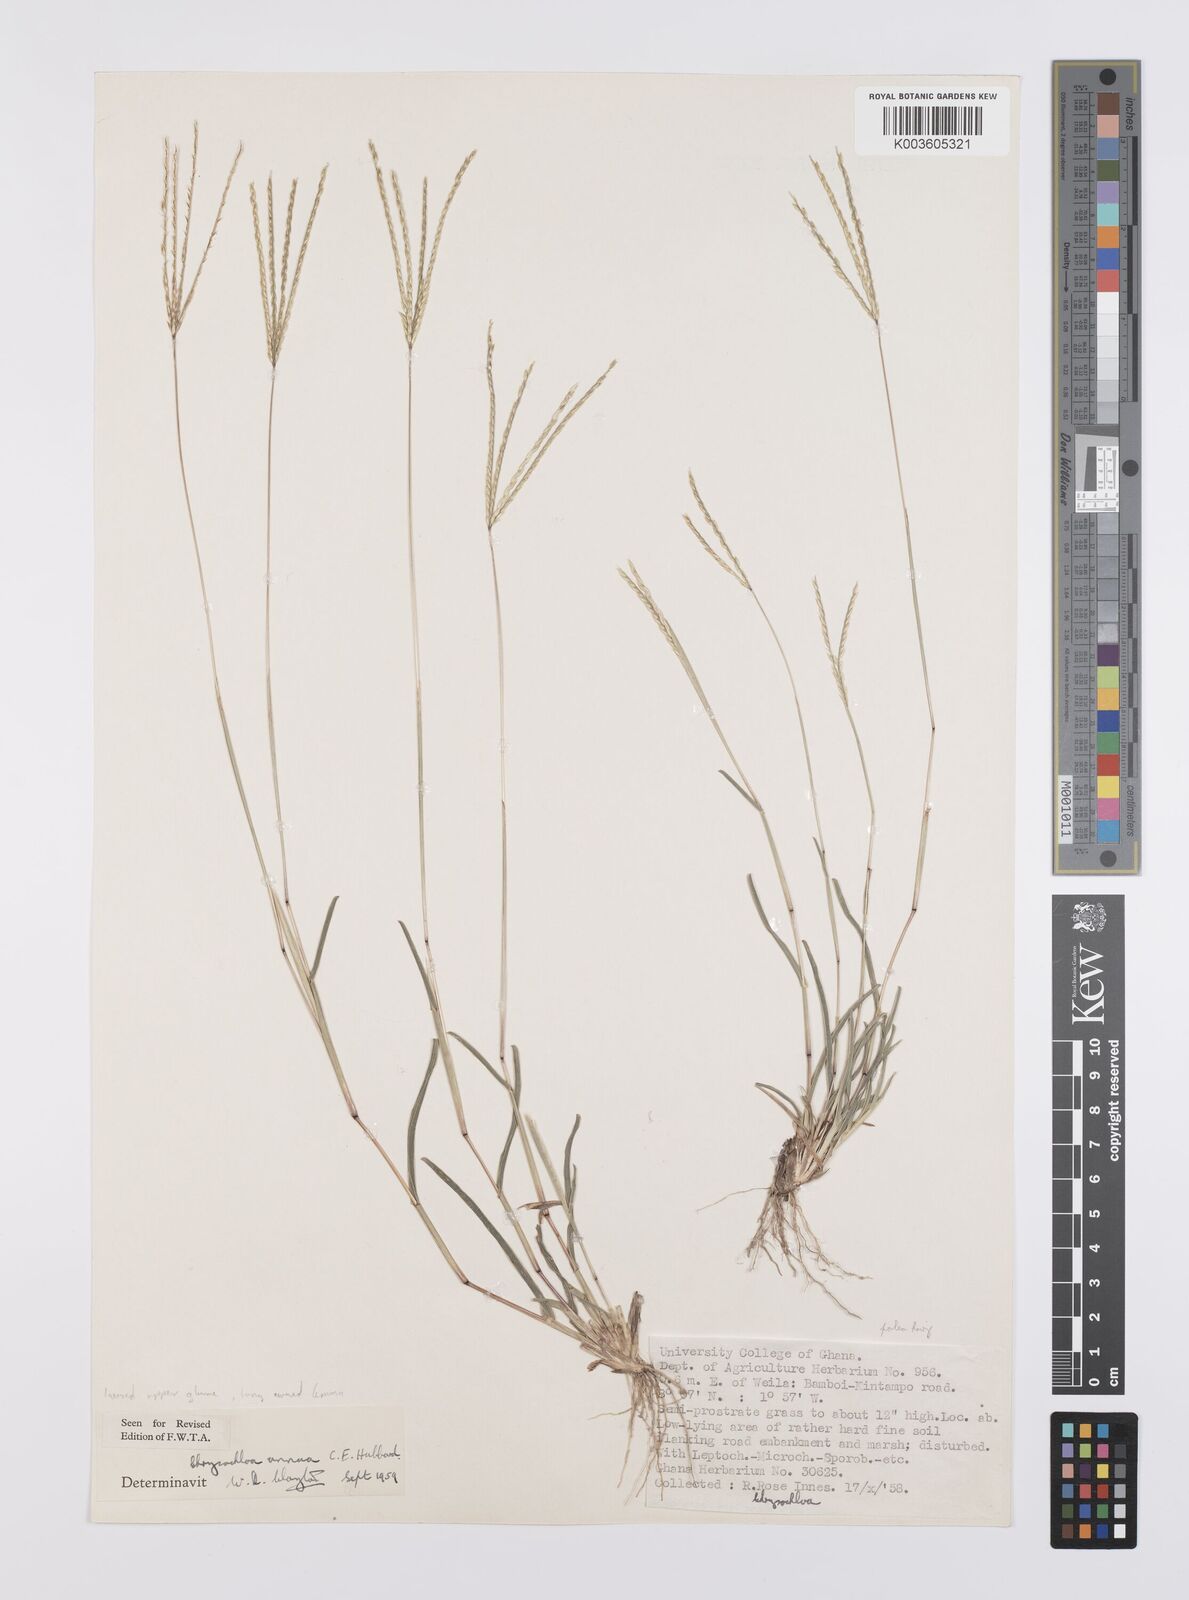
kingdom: Plantae
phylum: Tracheophyta
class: Liliopsida
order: Poales
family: Poaceae
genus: Chrysochloa
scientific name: Chrysochloa hindsii
